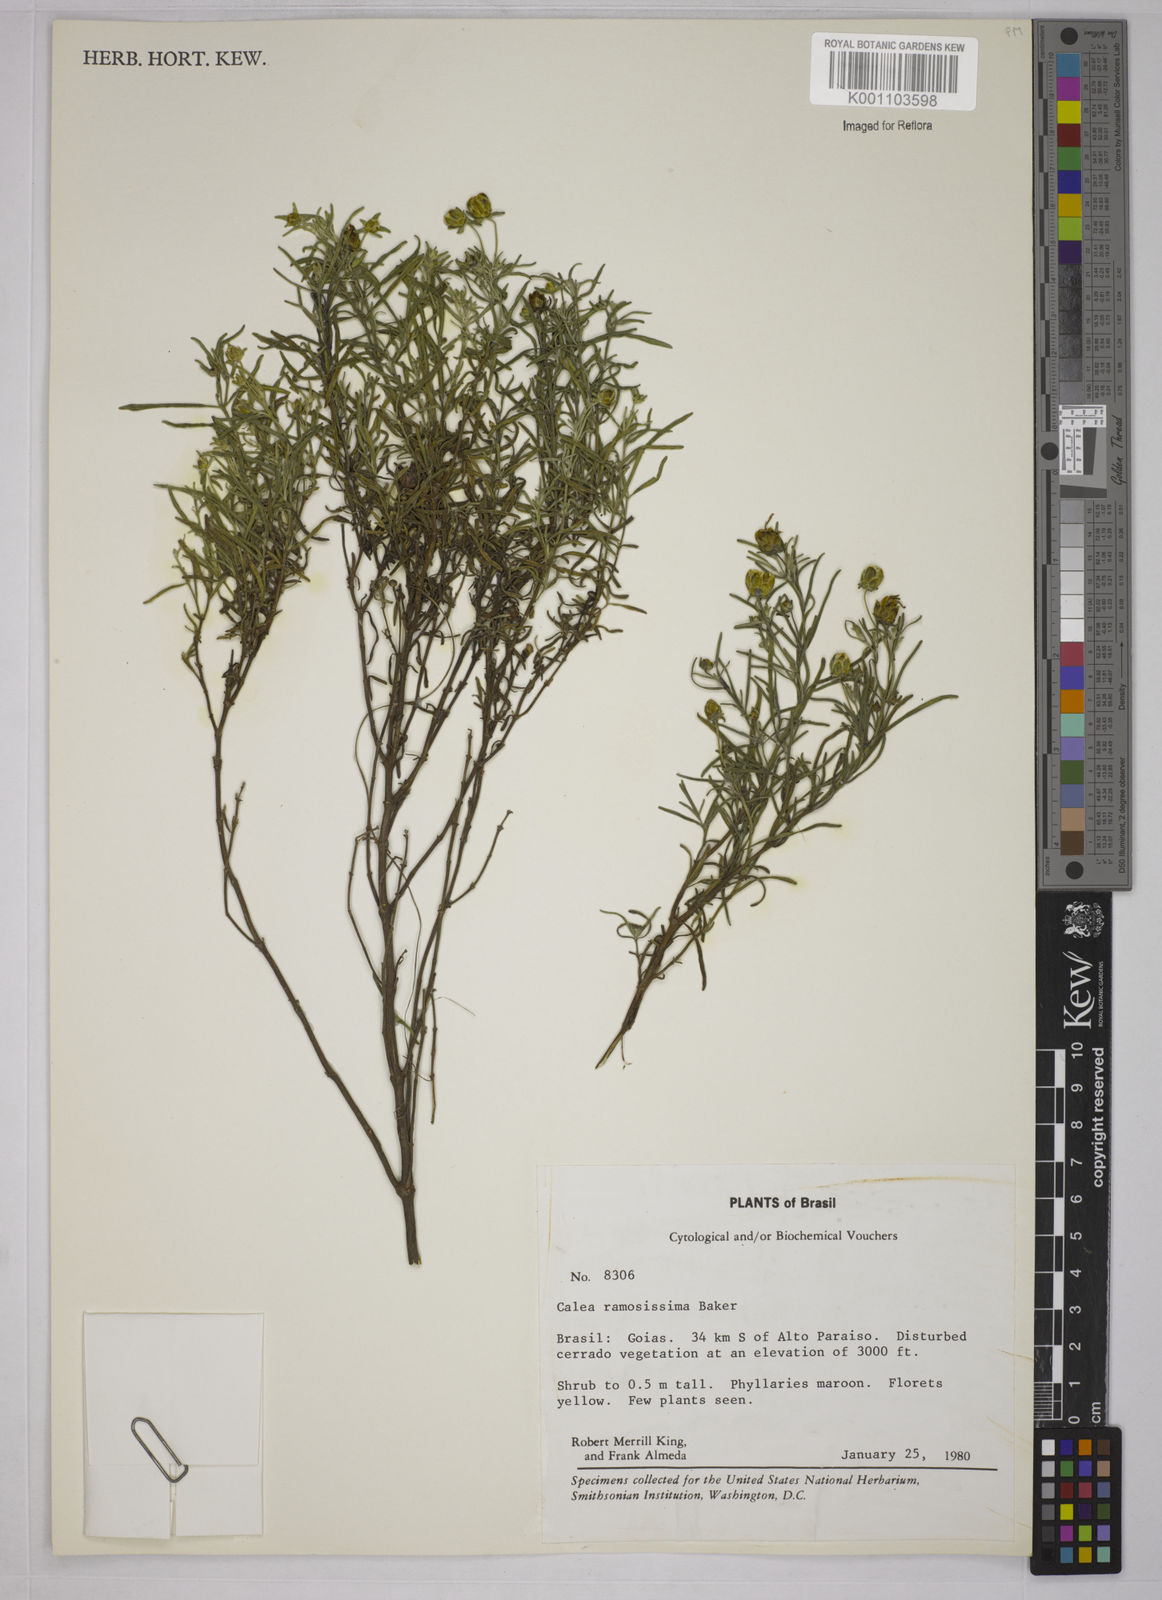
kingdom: Plantae
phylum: Tracheophyta
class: Magnoliopsida
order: Asterales
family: Asteraceae
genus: Calea
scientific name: Calea ramosissima
